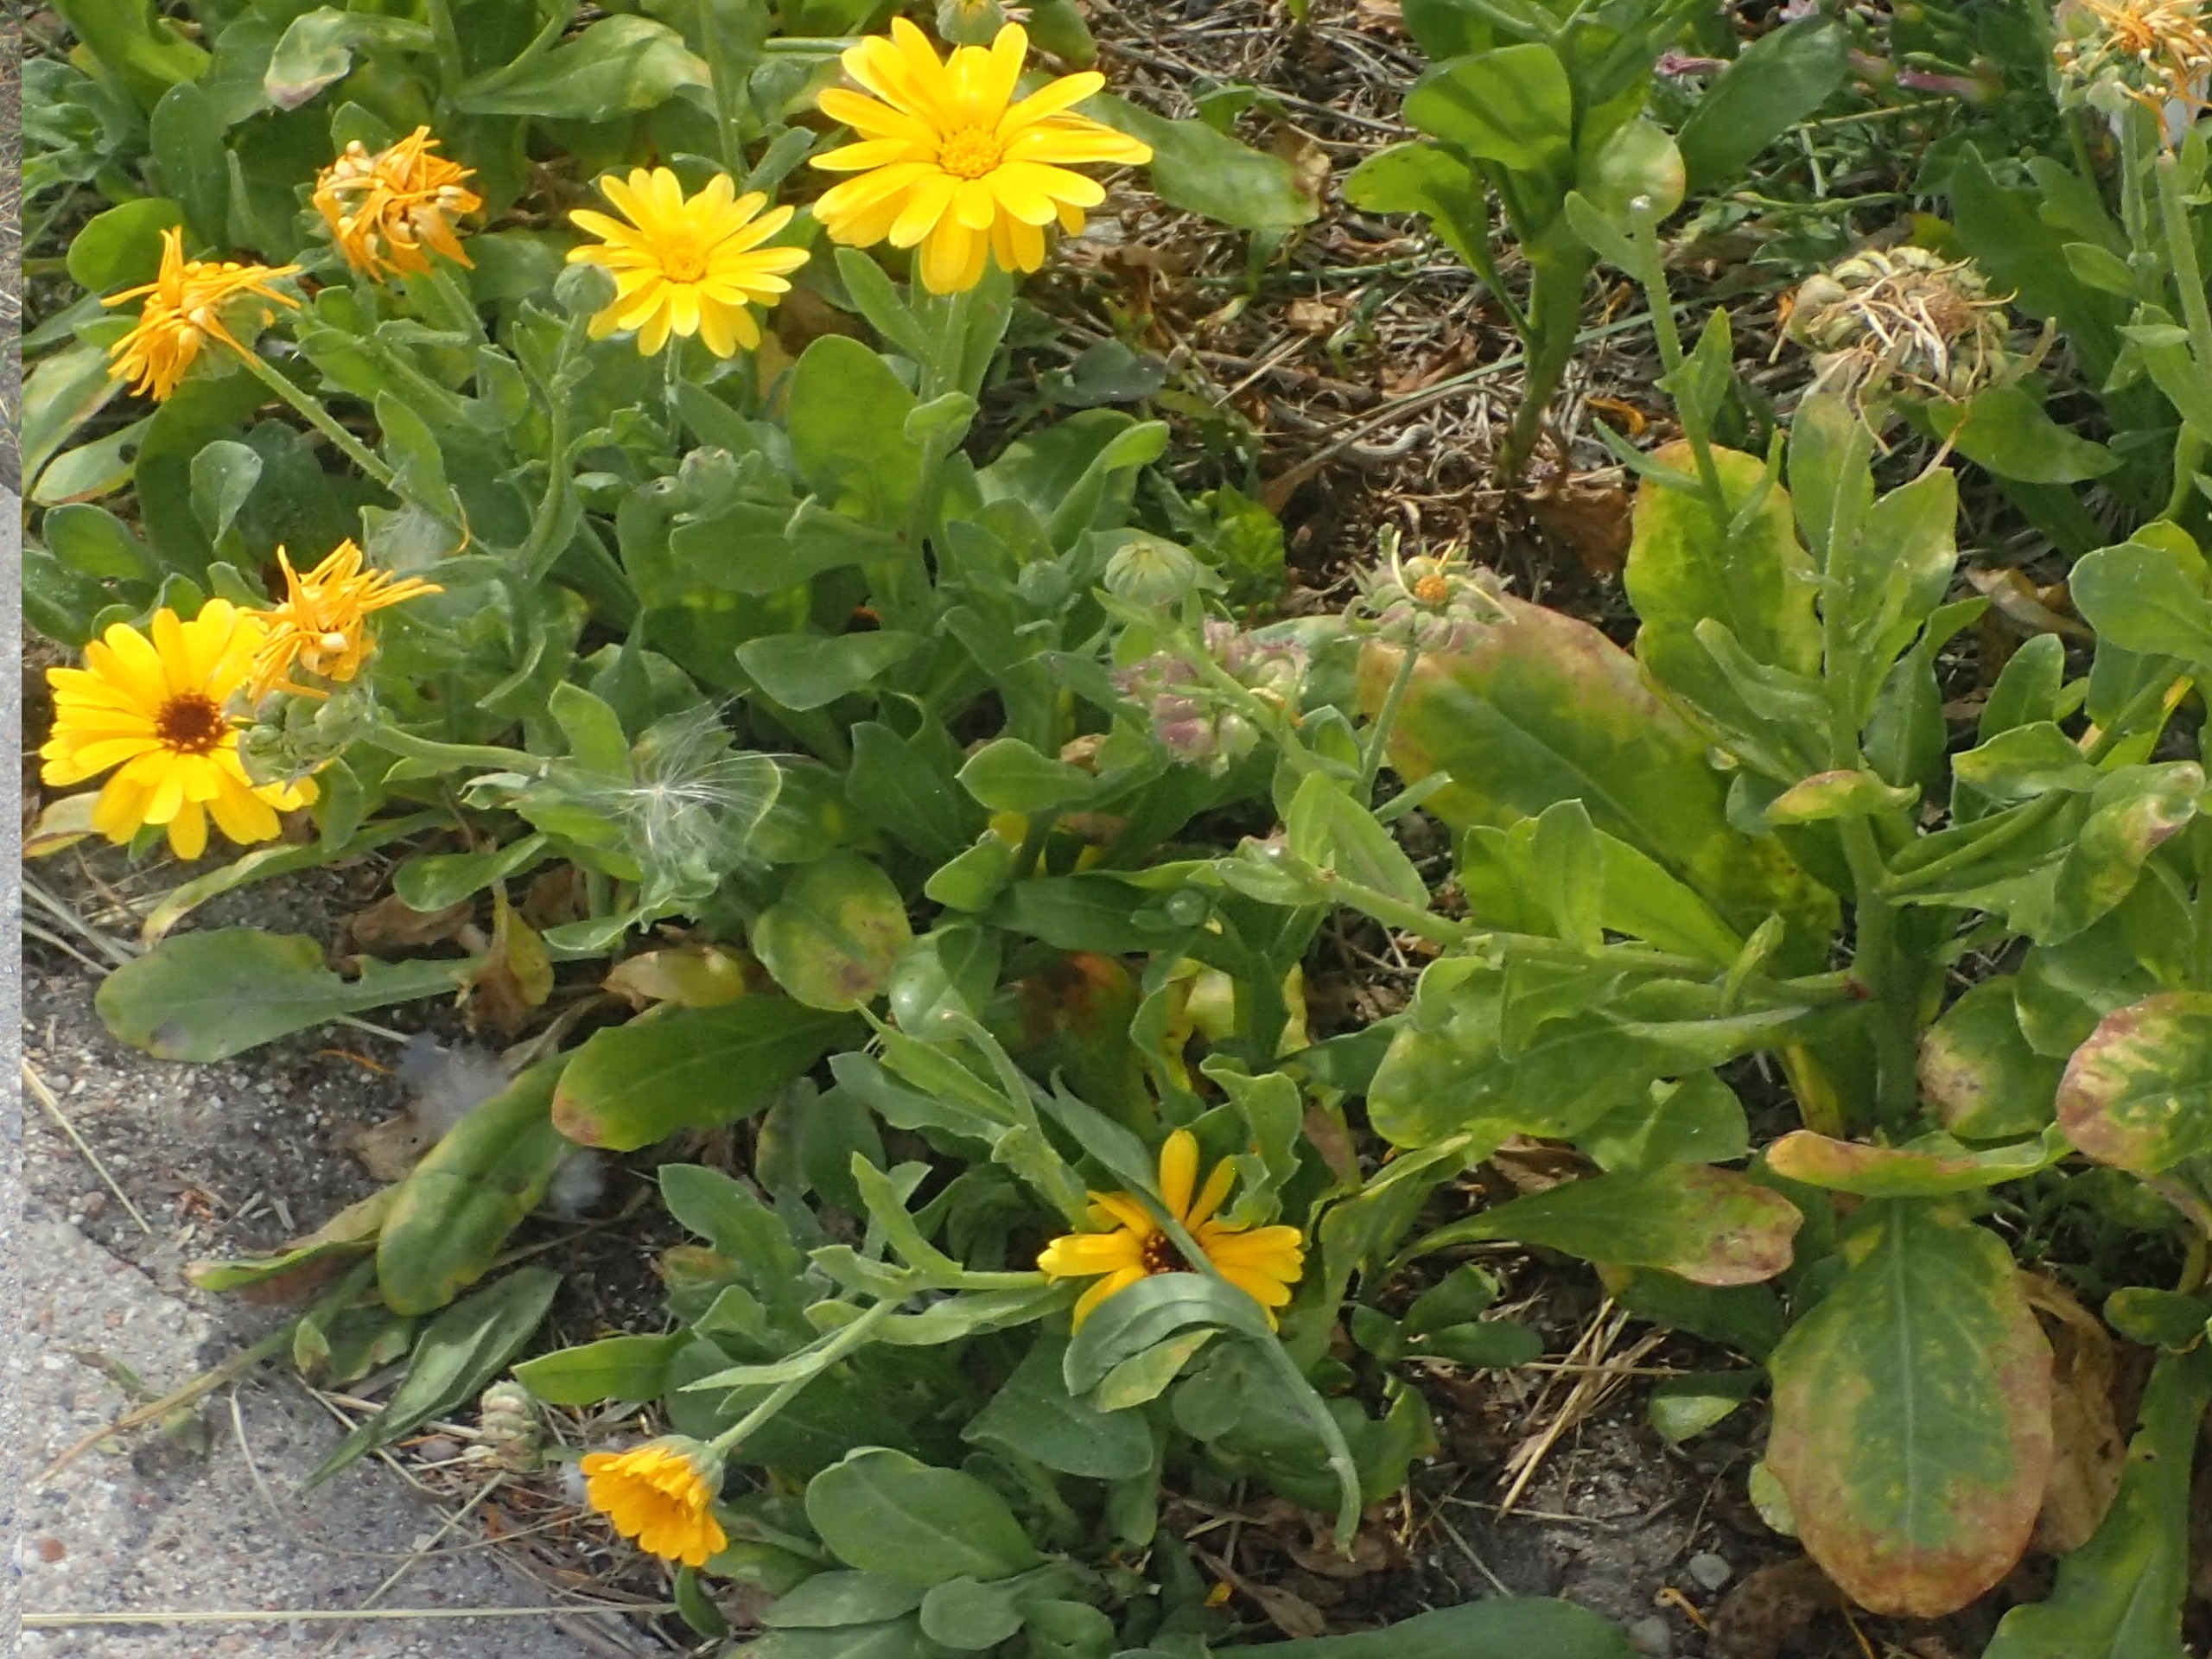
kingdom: Plantae
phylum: Tracheophyta
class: Magnoliopsida
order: Asterales
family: Asteraceae
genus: Calendula
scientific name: Calendula officinalis
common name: Have-morgenfrue
